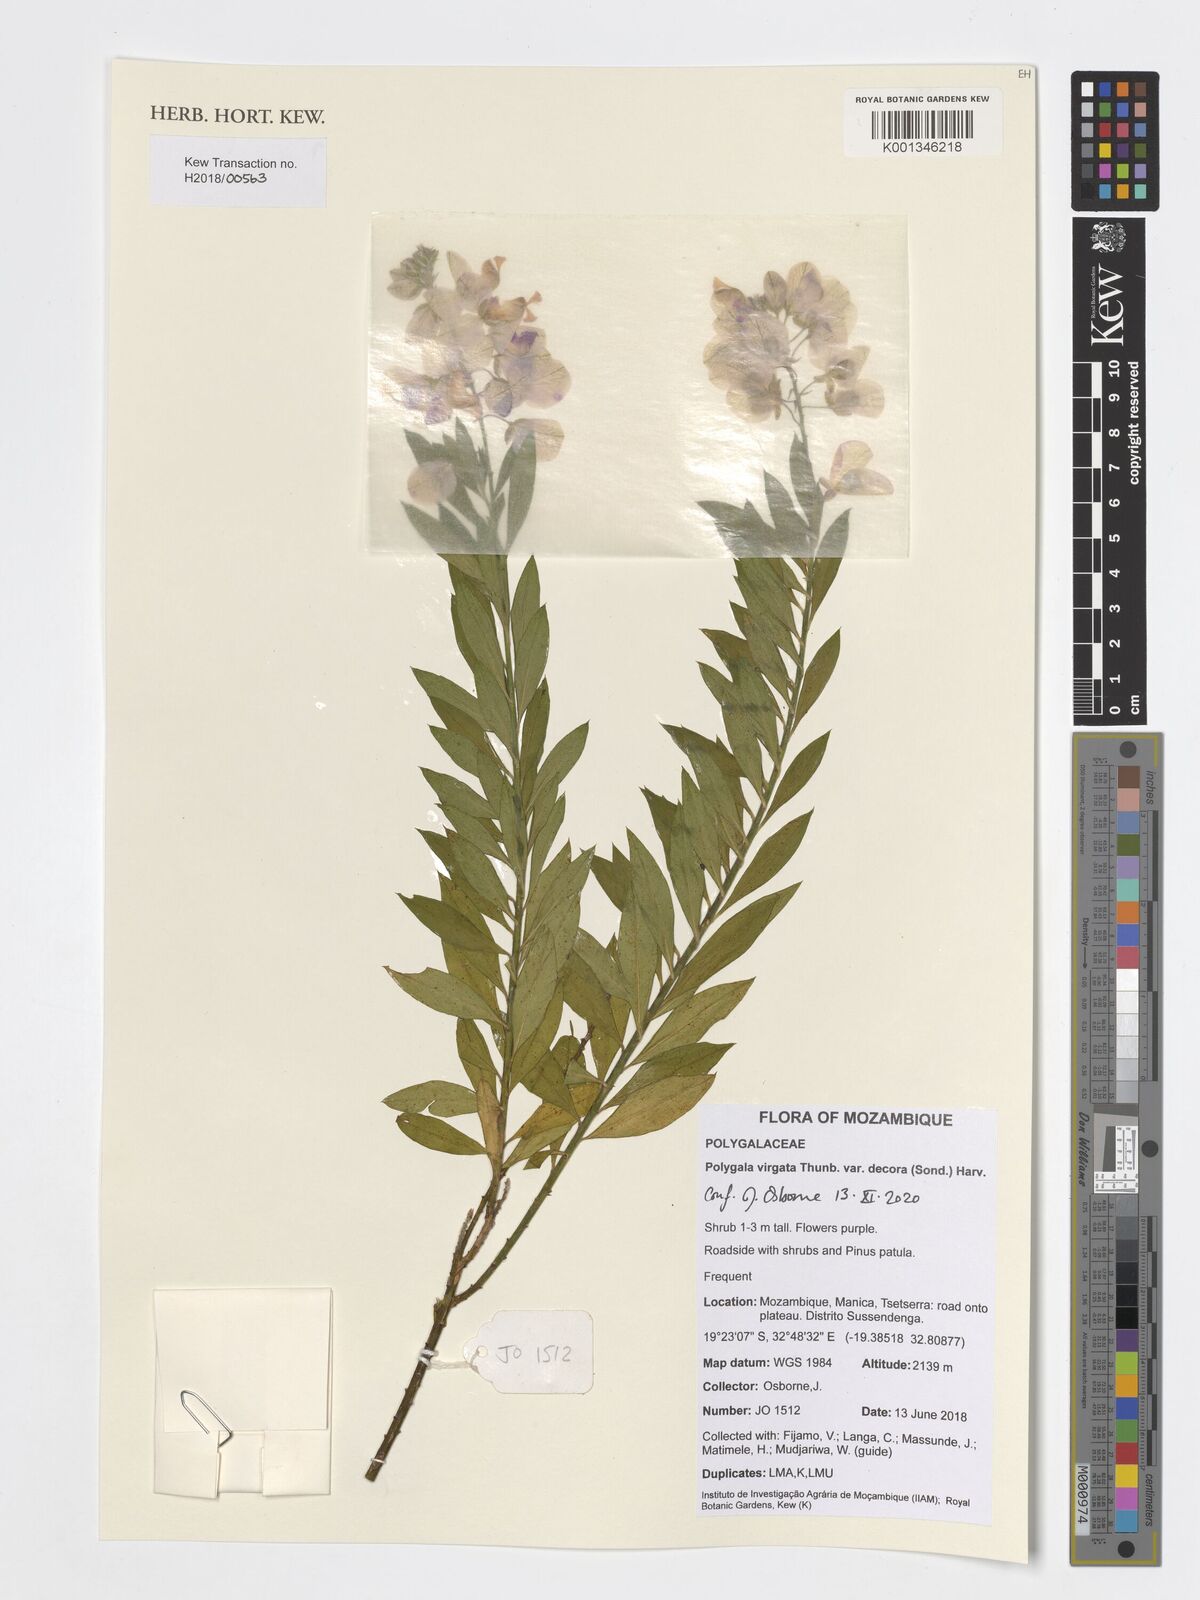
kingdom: Plantae
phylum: Tracheophyta
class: Magnoliopsida
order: Fabales
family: Polygalaceae
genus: Polygala
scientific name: Polygala virgata
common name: Milkwort
